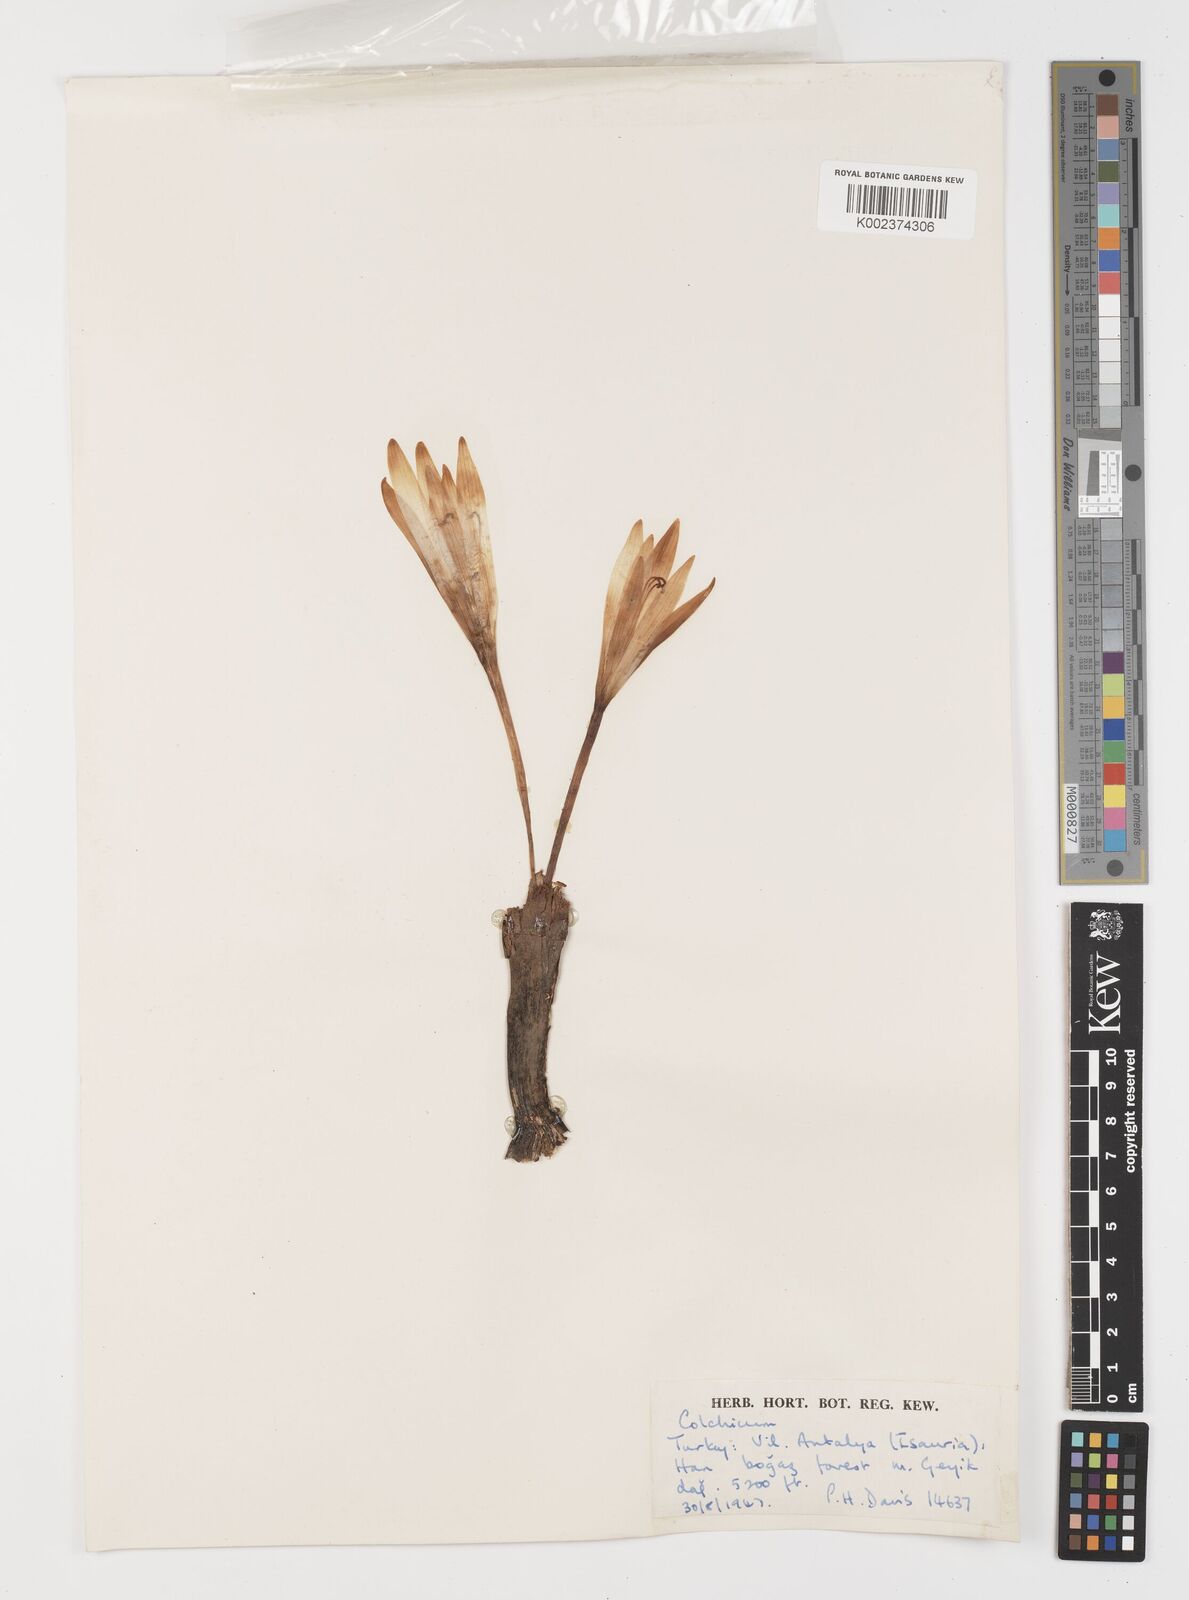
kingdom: Plantae
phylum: Tracheophyta
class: Liliopsida
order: Liliales
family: Colchicaceae
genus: Colchicum
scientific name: Colchicum
